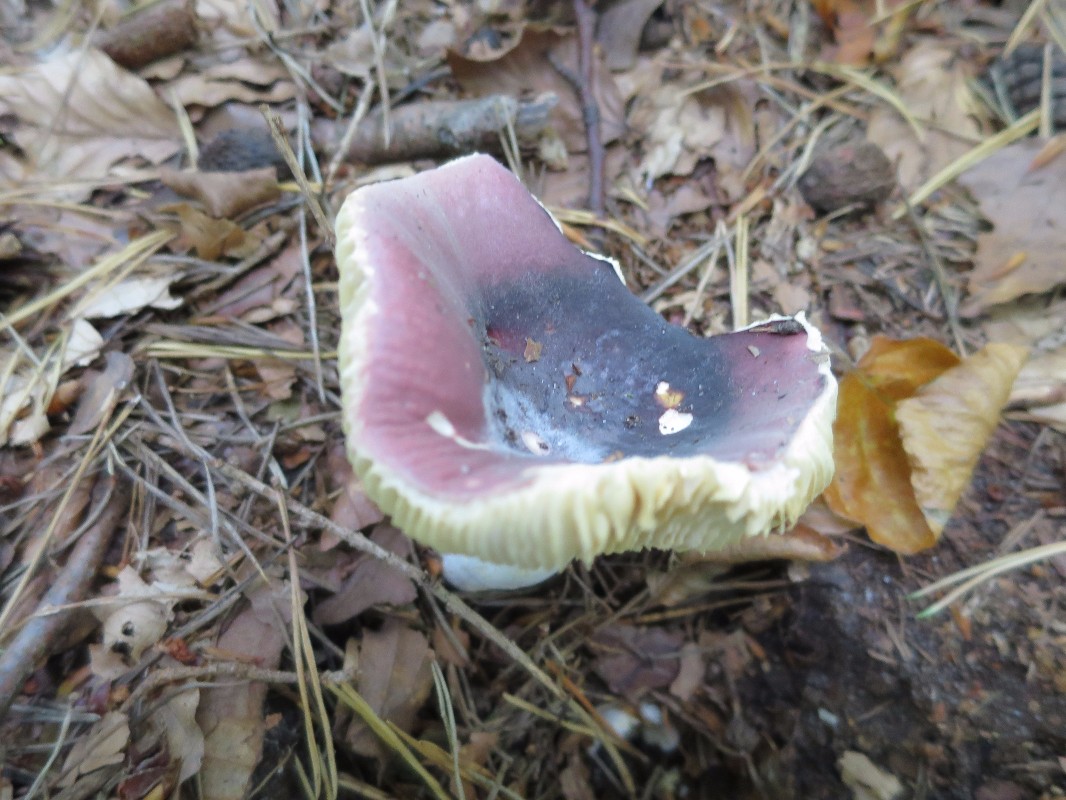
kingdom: Fungi
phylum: Basidiomycota
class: Agaricomycetes
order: Russulales
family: Russulaceae
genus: Russula
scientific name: Russula turci
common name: jod-skørhat
